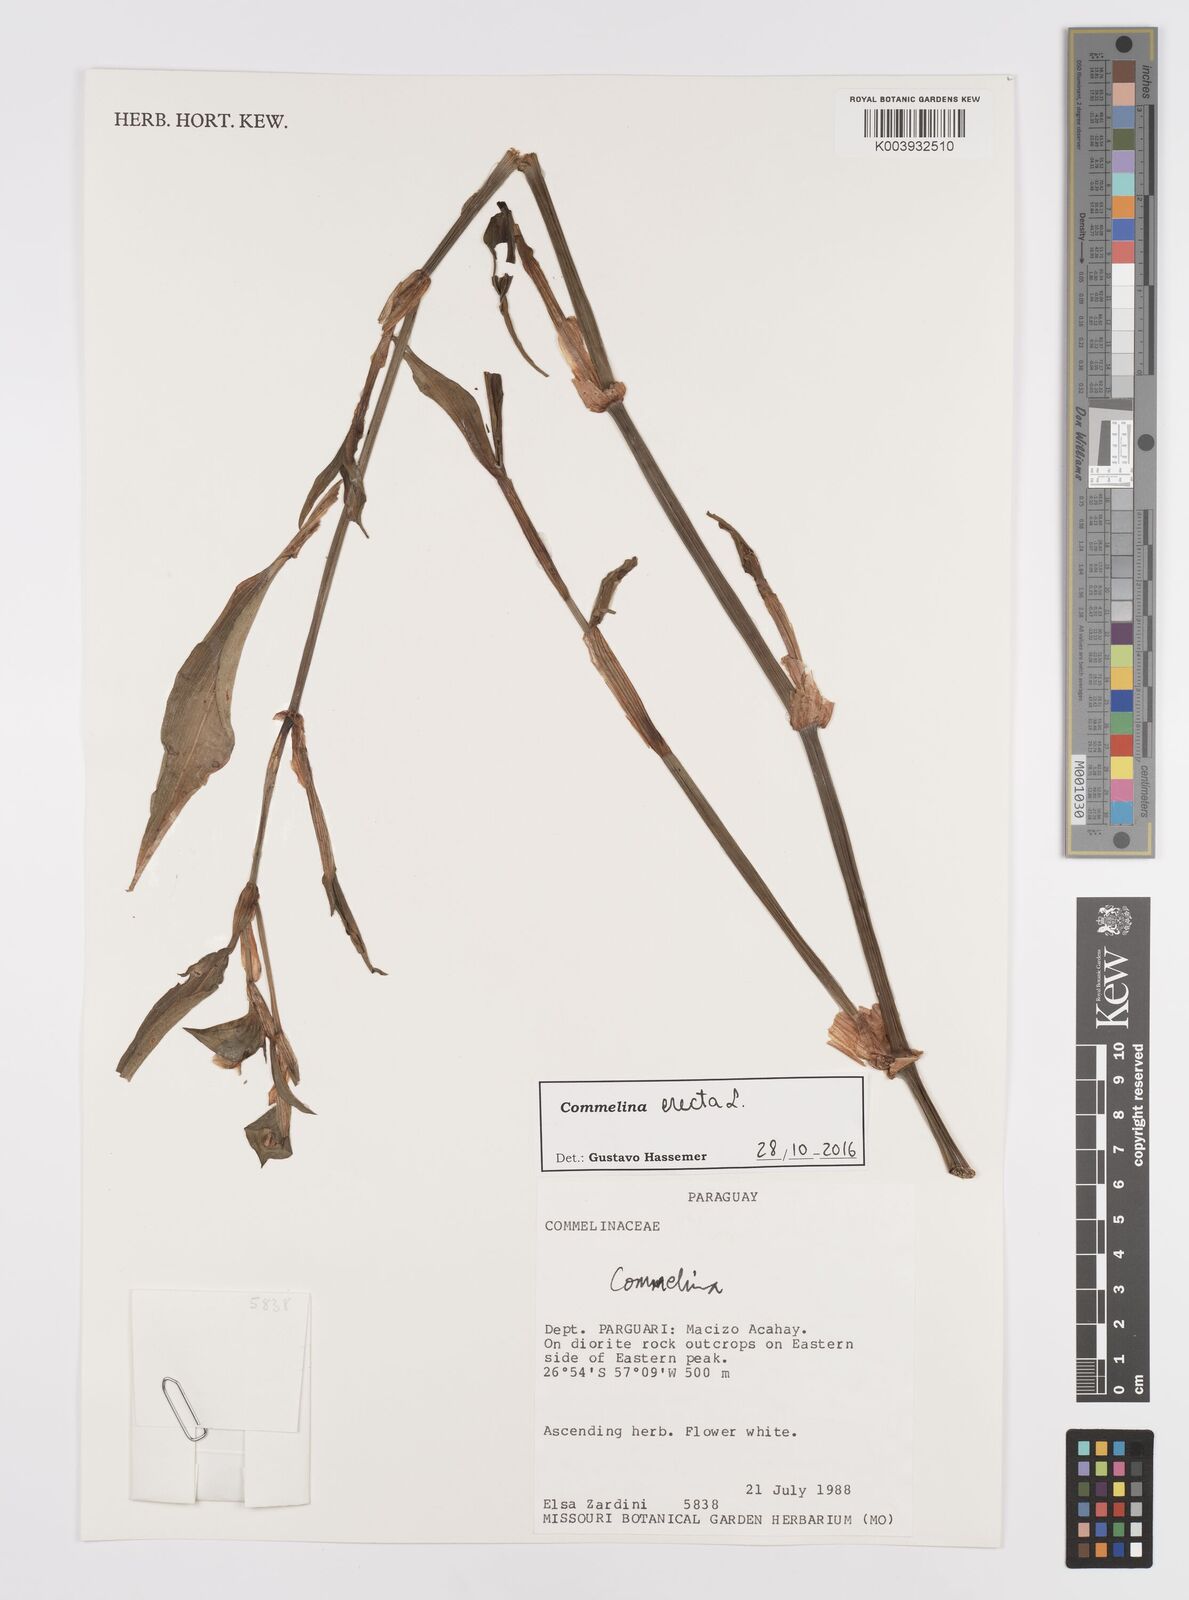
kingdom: Plantae
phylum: Tracheophyta
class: Liliopsida
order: Commelinales
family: Commelinaceae
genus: Commelina
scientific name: Commelina erecta
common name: Blousel blommetjie
